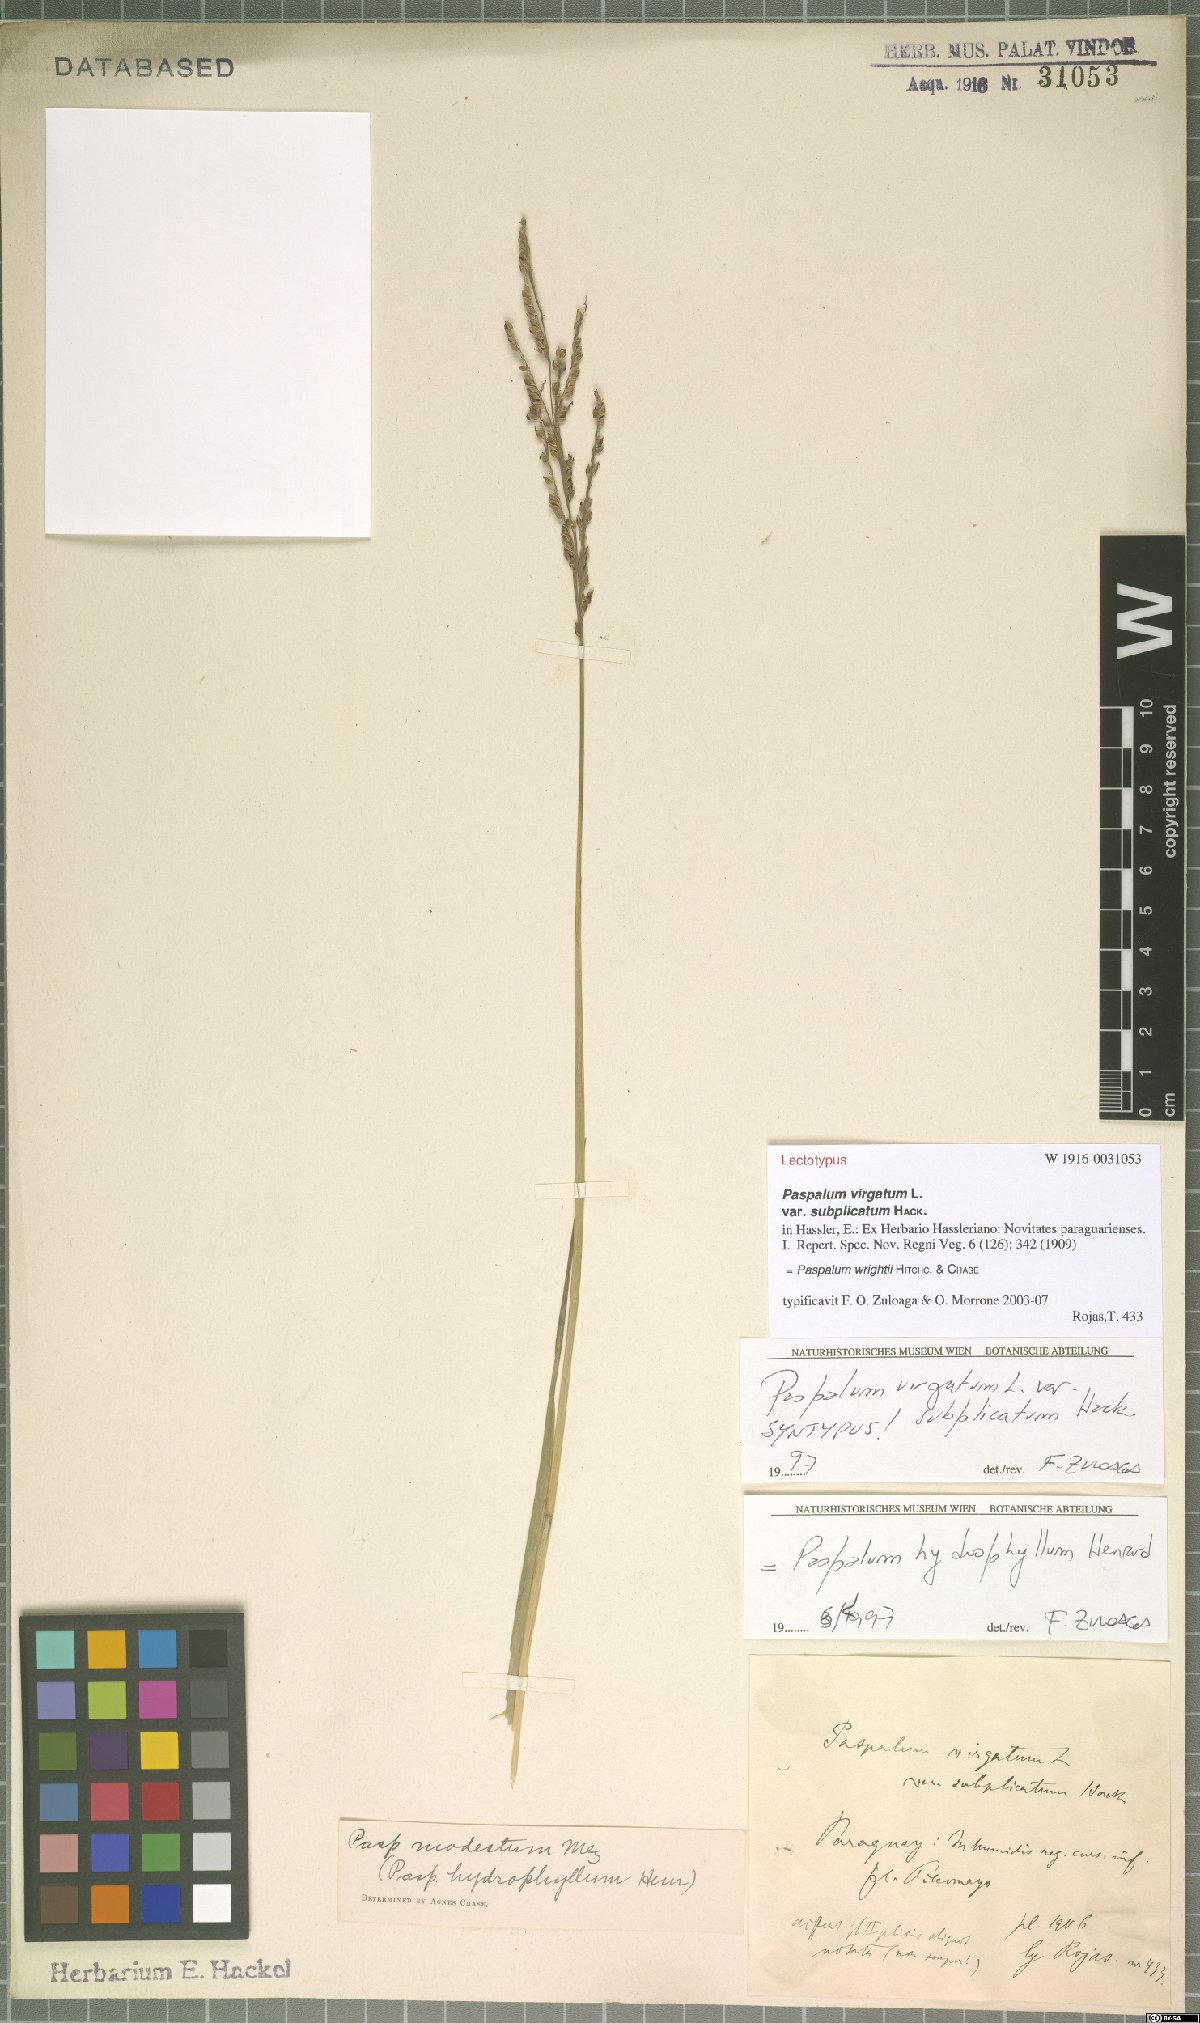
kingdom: Plantae
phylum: Tracheophyta
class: Liliopsida
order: Poales
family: Poaceae
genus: Paspalum
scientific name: Paspalum wrightii
